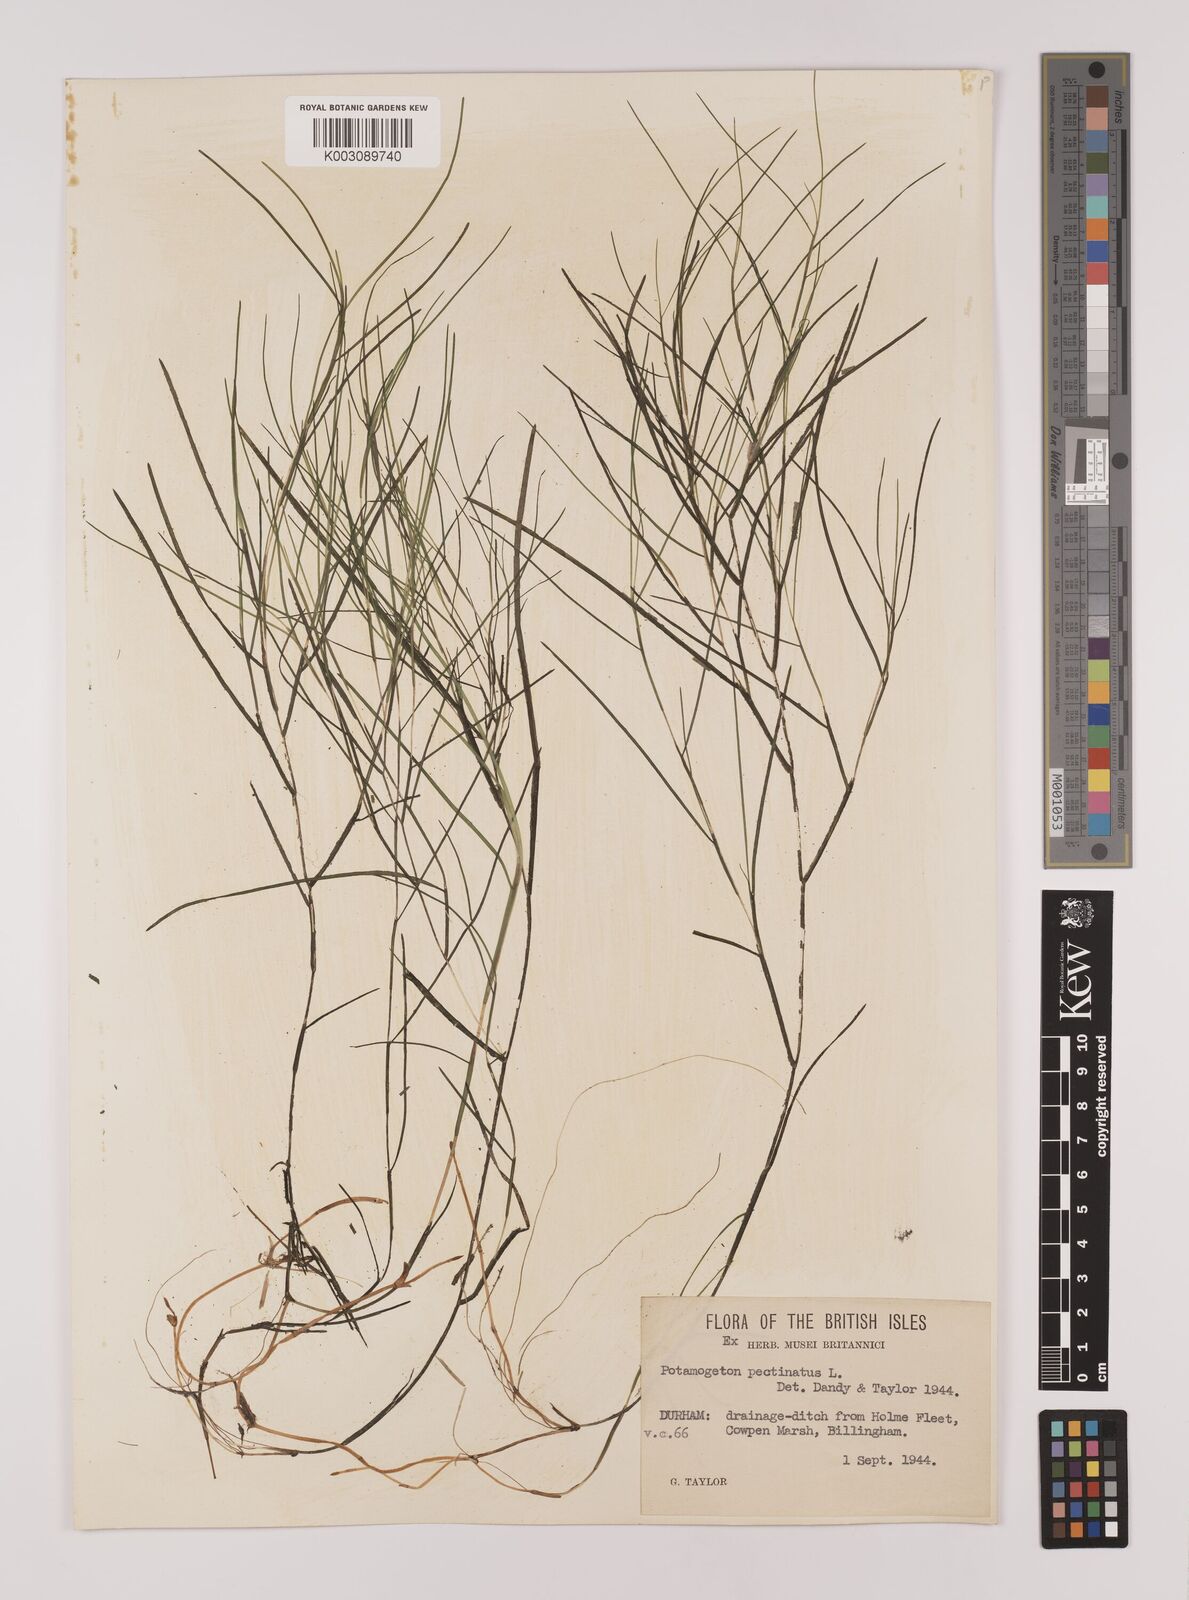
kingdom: Plantae
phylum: Tracheophyta
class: Liliopsida
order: Alismatales
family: Potamogetonaceae
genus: Stuckenia
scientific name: Stuckenia pectinata
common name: Sago pondweed
